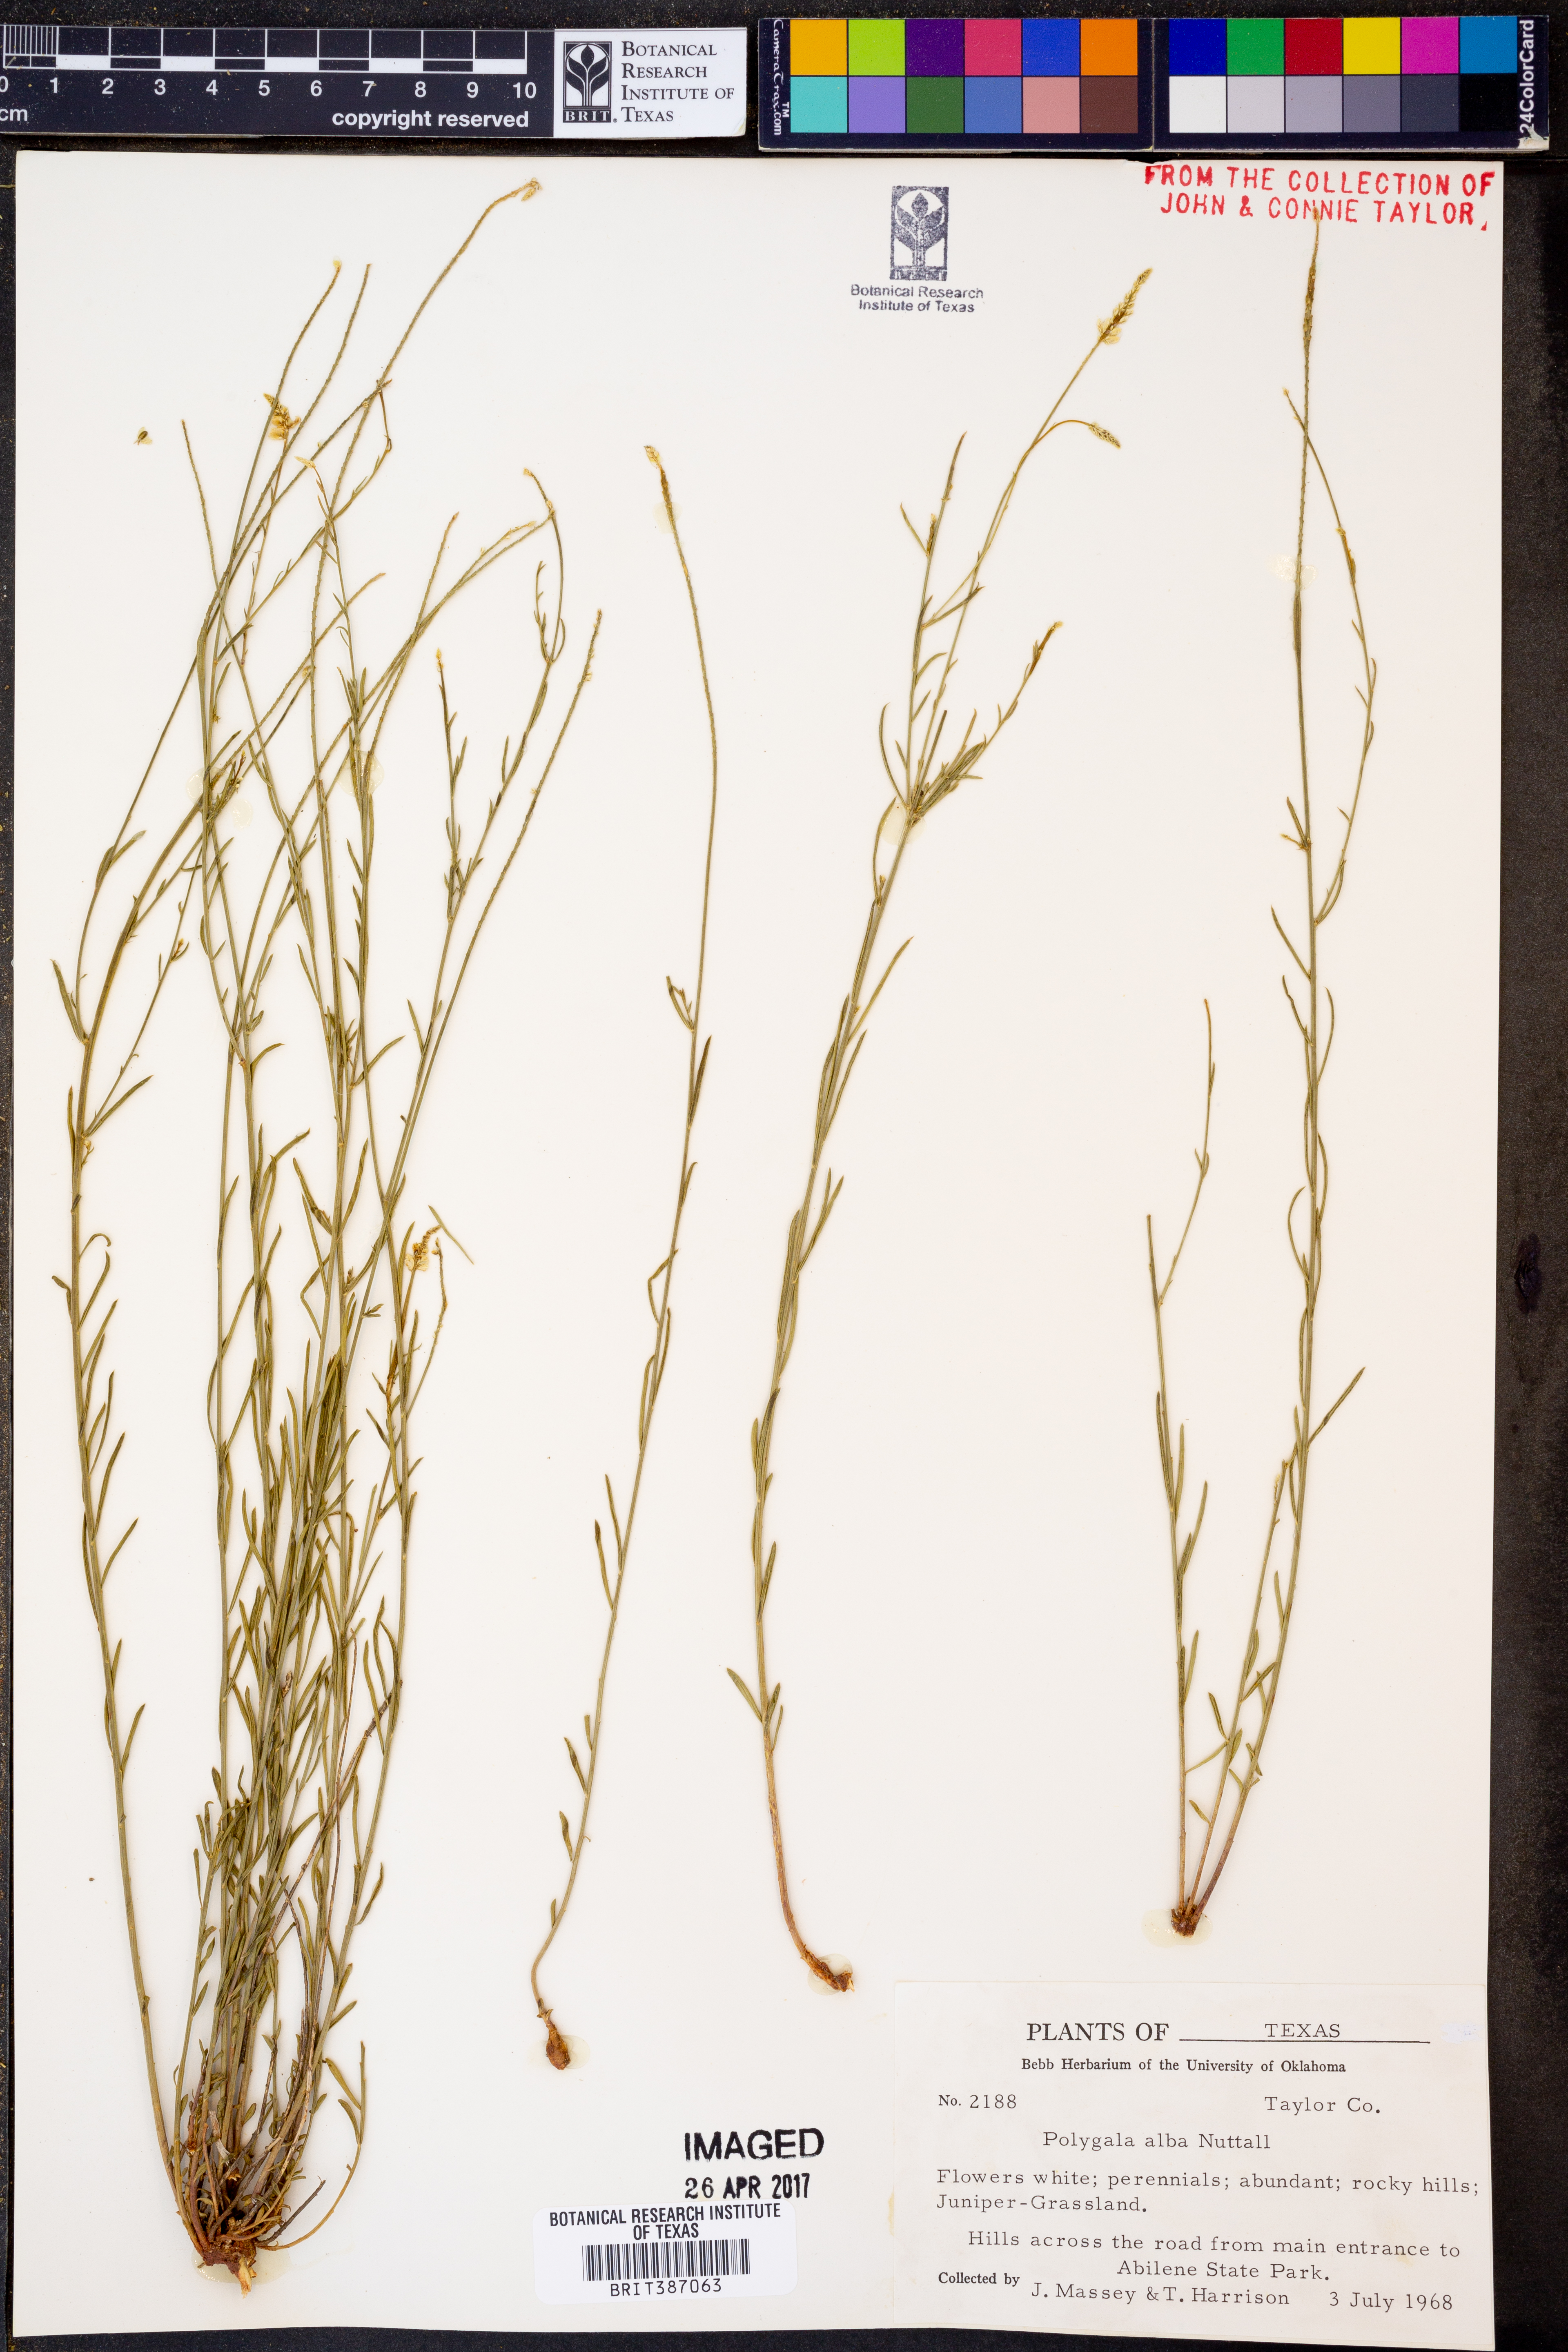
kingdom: Plantae
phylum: Tracheophyta
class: Magnoliopsida
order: Fabales
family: Polygalaceae
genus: Polygala
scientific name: Polygala alba
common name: White milkwort
